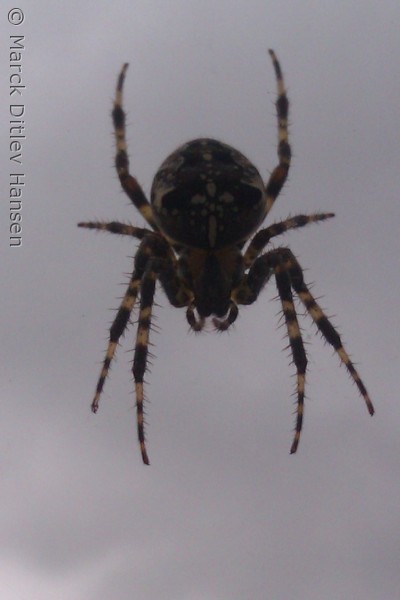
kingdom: Animalia
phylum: Arthropoda
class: Arachnida
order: Araneae
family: Araneidae
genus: Araneus
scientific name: Araneus diadematus
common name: Korsedderkop
